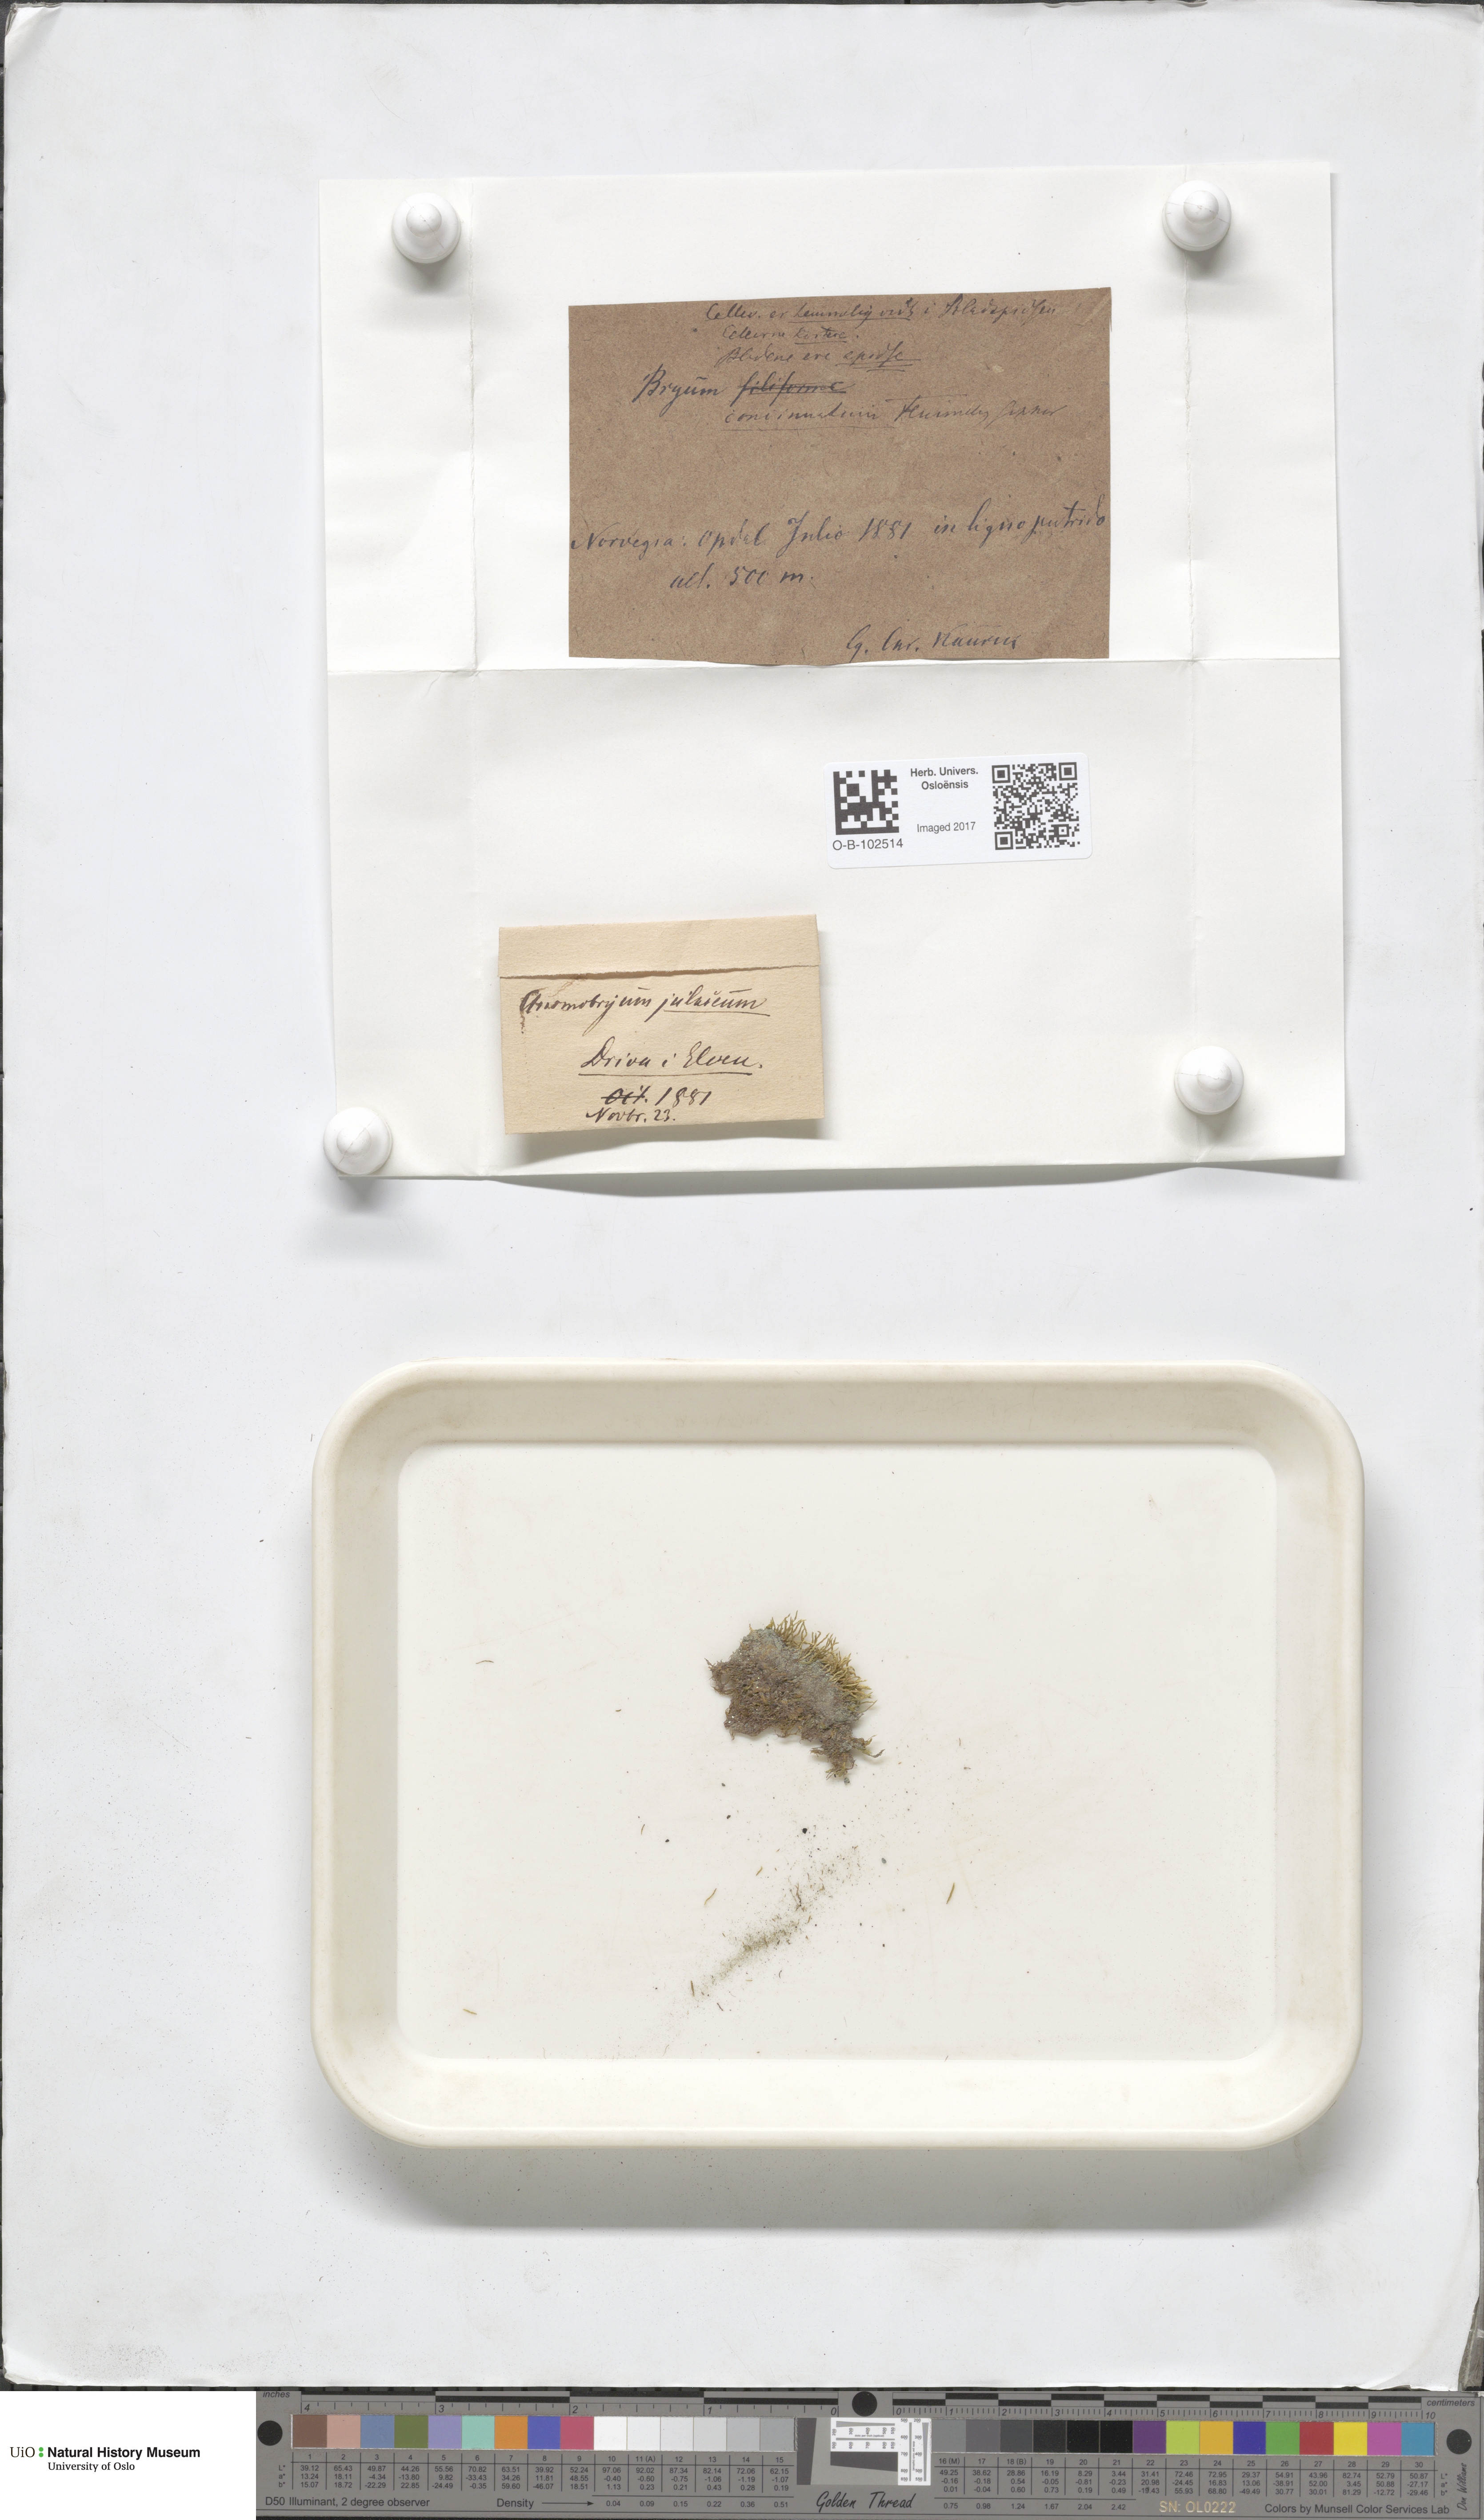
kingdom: Plantae
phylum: Bryophyta
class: Bryopsida
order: Bryales
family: Bryaceae
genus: Anomobryum
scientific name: Anomobryum julaceum
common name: Slender silver moss
